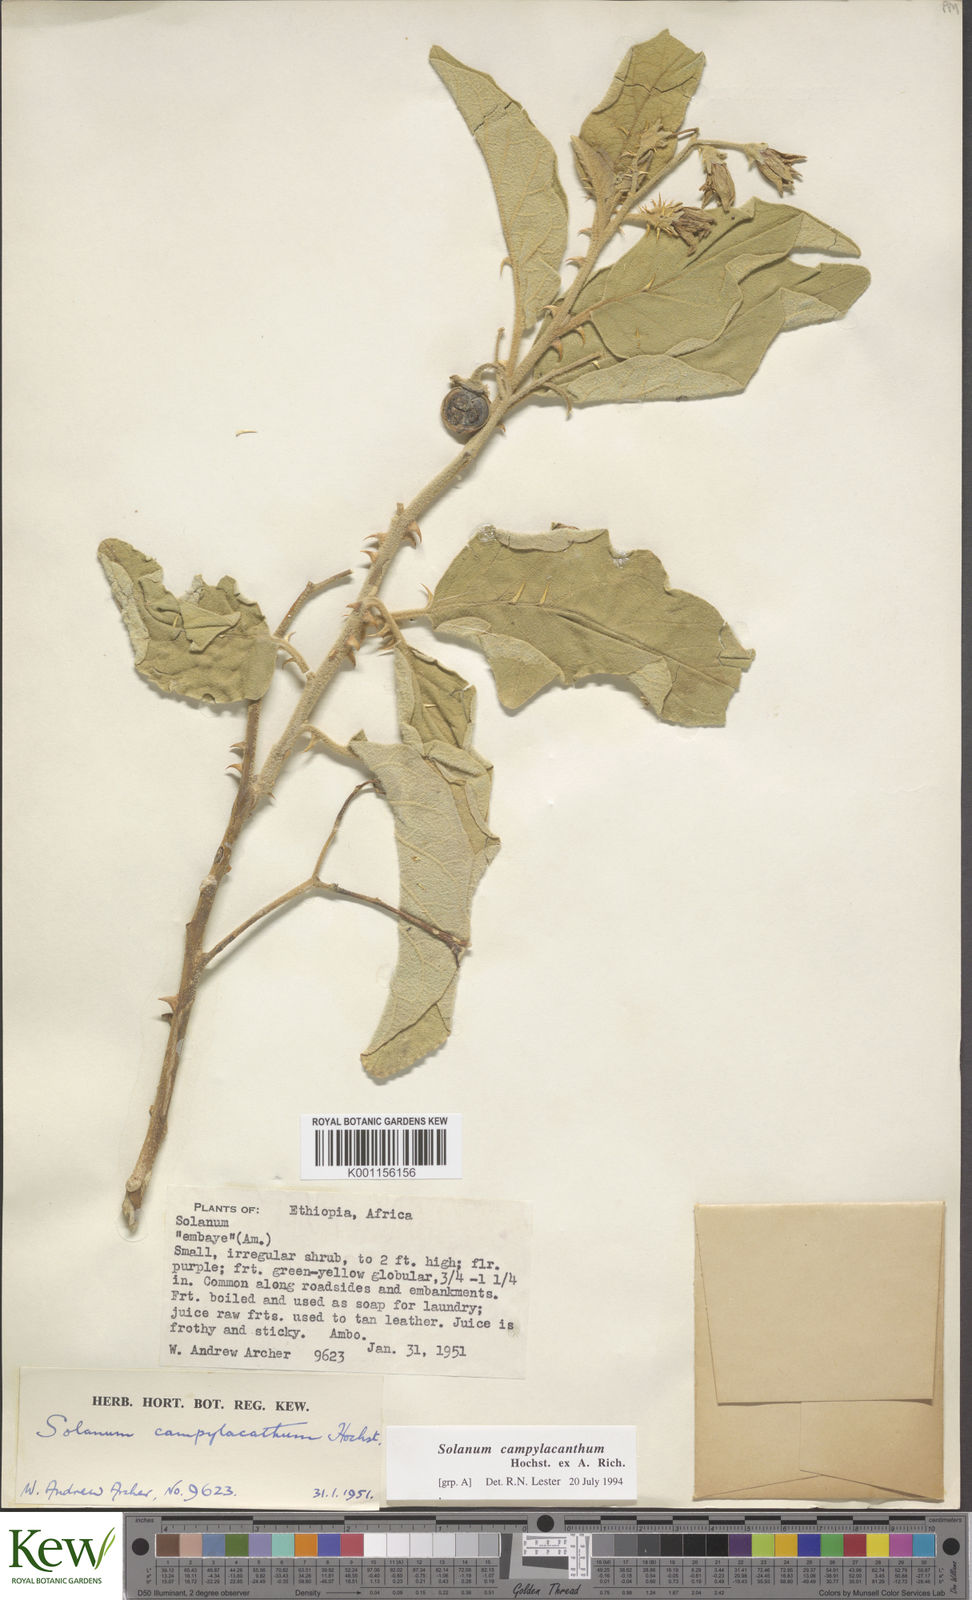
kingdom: Plantae
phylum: Tracheophyta
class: Magnoliopsida
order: Solanales
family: Solanaceae
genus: Solanum
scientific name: Solanum campylacanthum
